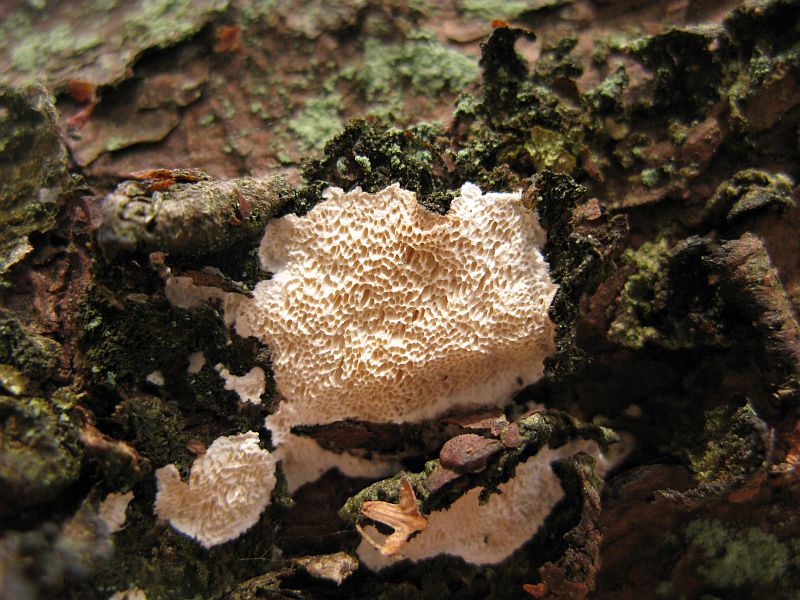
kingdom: Fungi
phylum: Basidiomycota
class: Agaricomycetes
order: Polyporales
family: Gelatoporiaceae
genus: Cinereomyces
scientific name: Cinereomyces lindbladii
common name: almindelig gråporesvamp
